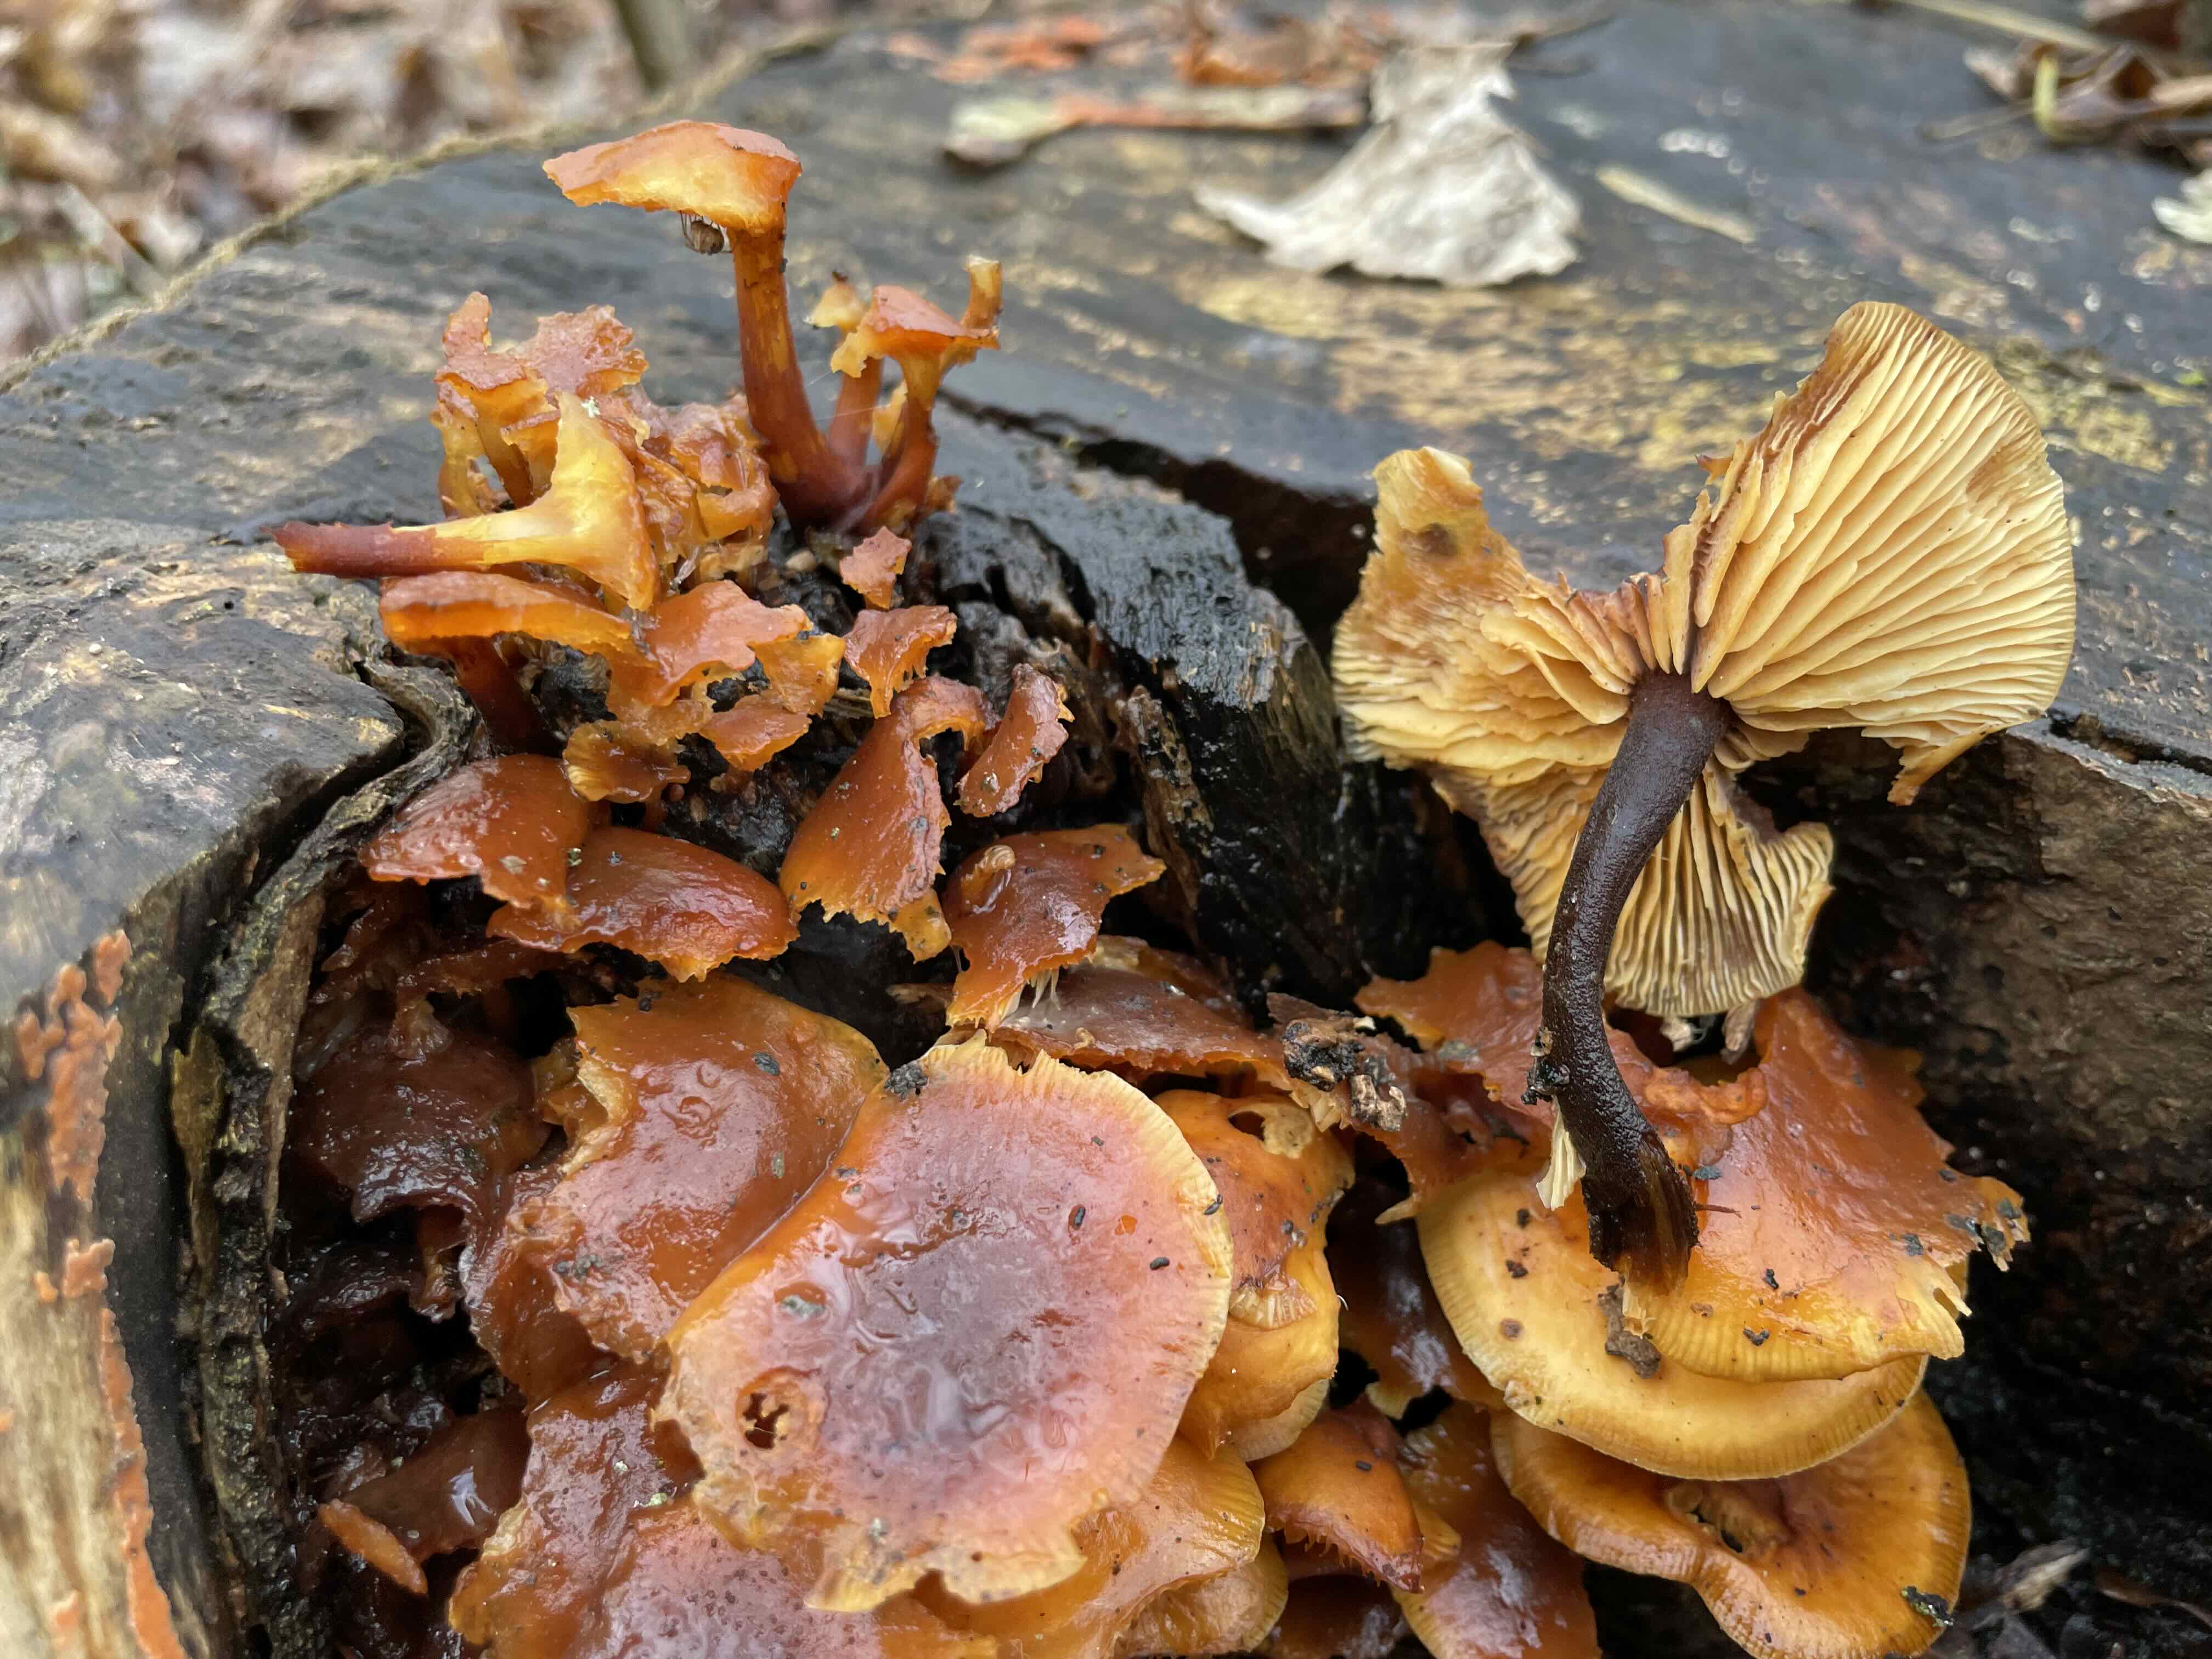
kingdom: Fungi
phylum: Basidiomycota
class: Agaricomycetes
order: Agaricales
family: Physalacriaceae
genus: Flammulina
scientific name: Flammulina velutipes
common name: gul fløjlsfod
